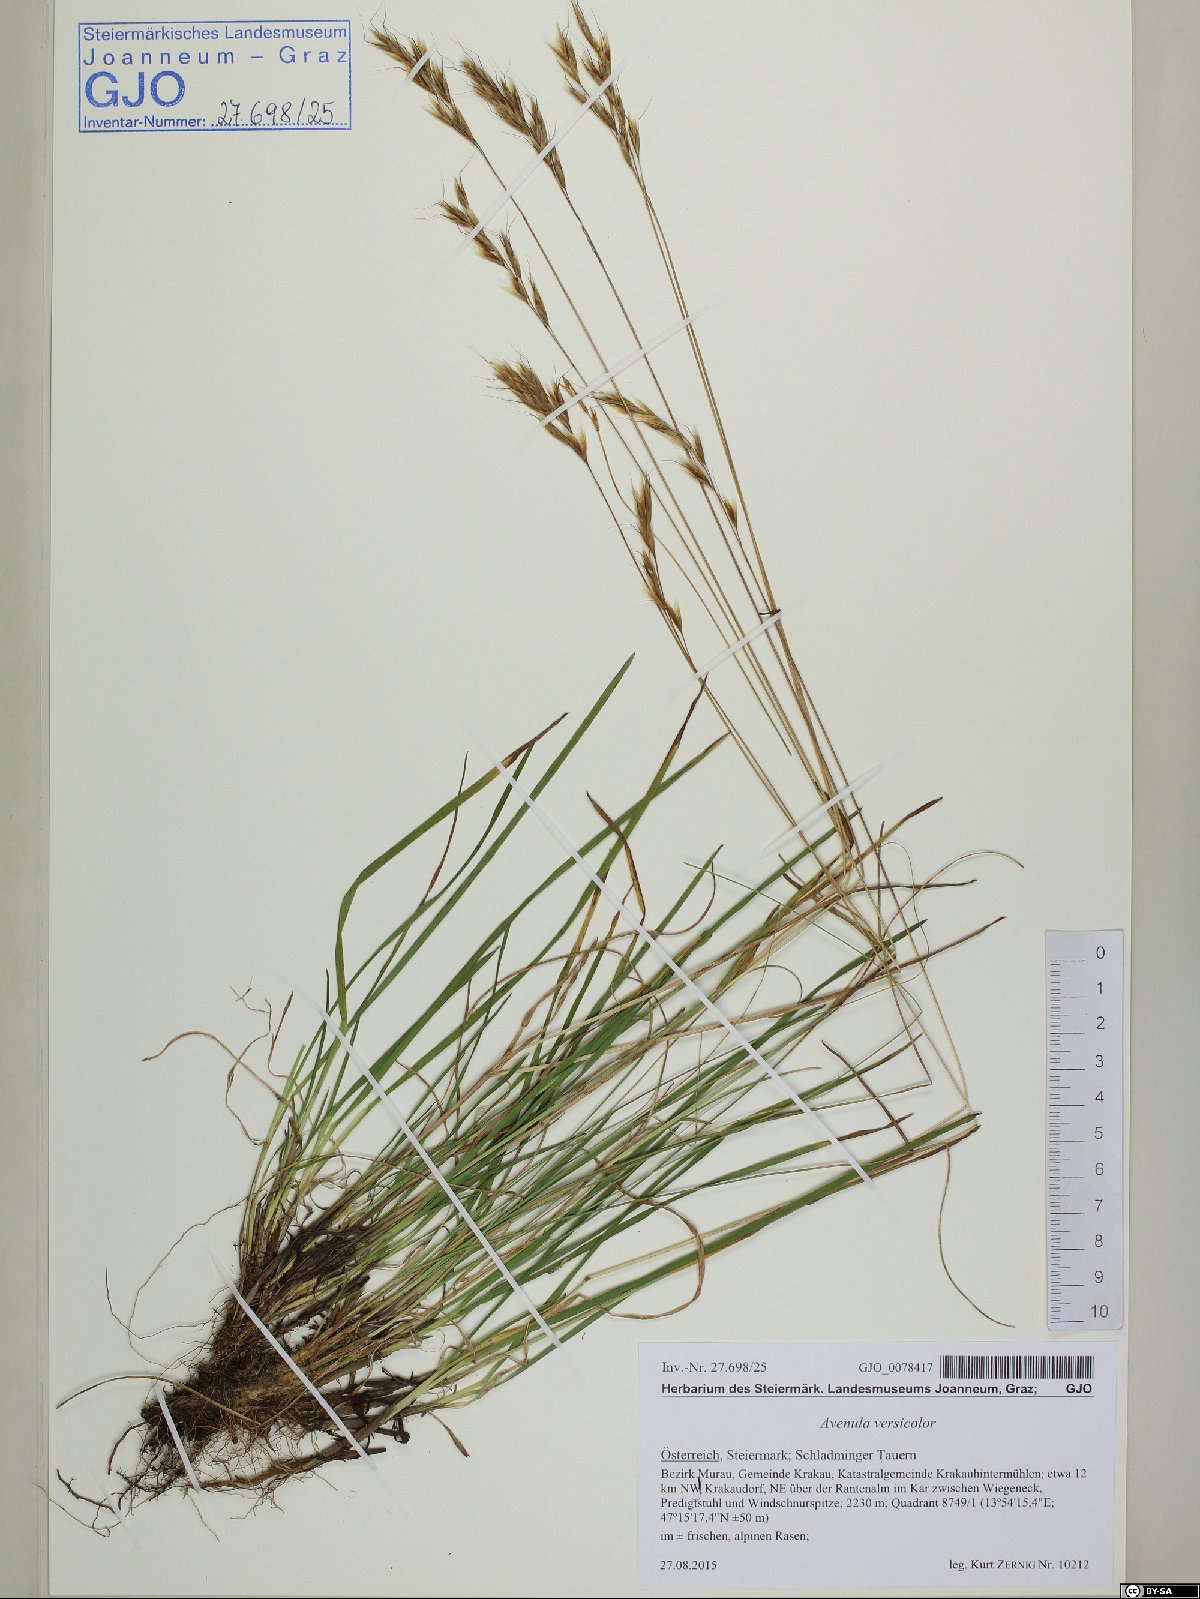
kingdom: Plantae
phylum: Tracheophyta
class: Liliopsida
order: Poales
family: Poaceae
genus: Helictochloa
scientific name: Helictochloa versicolor
